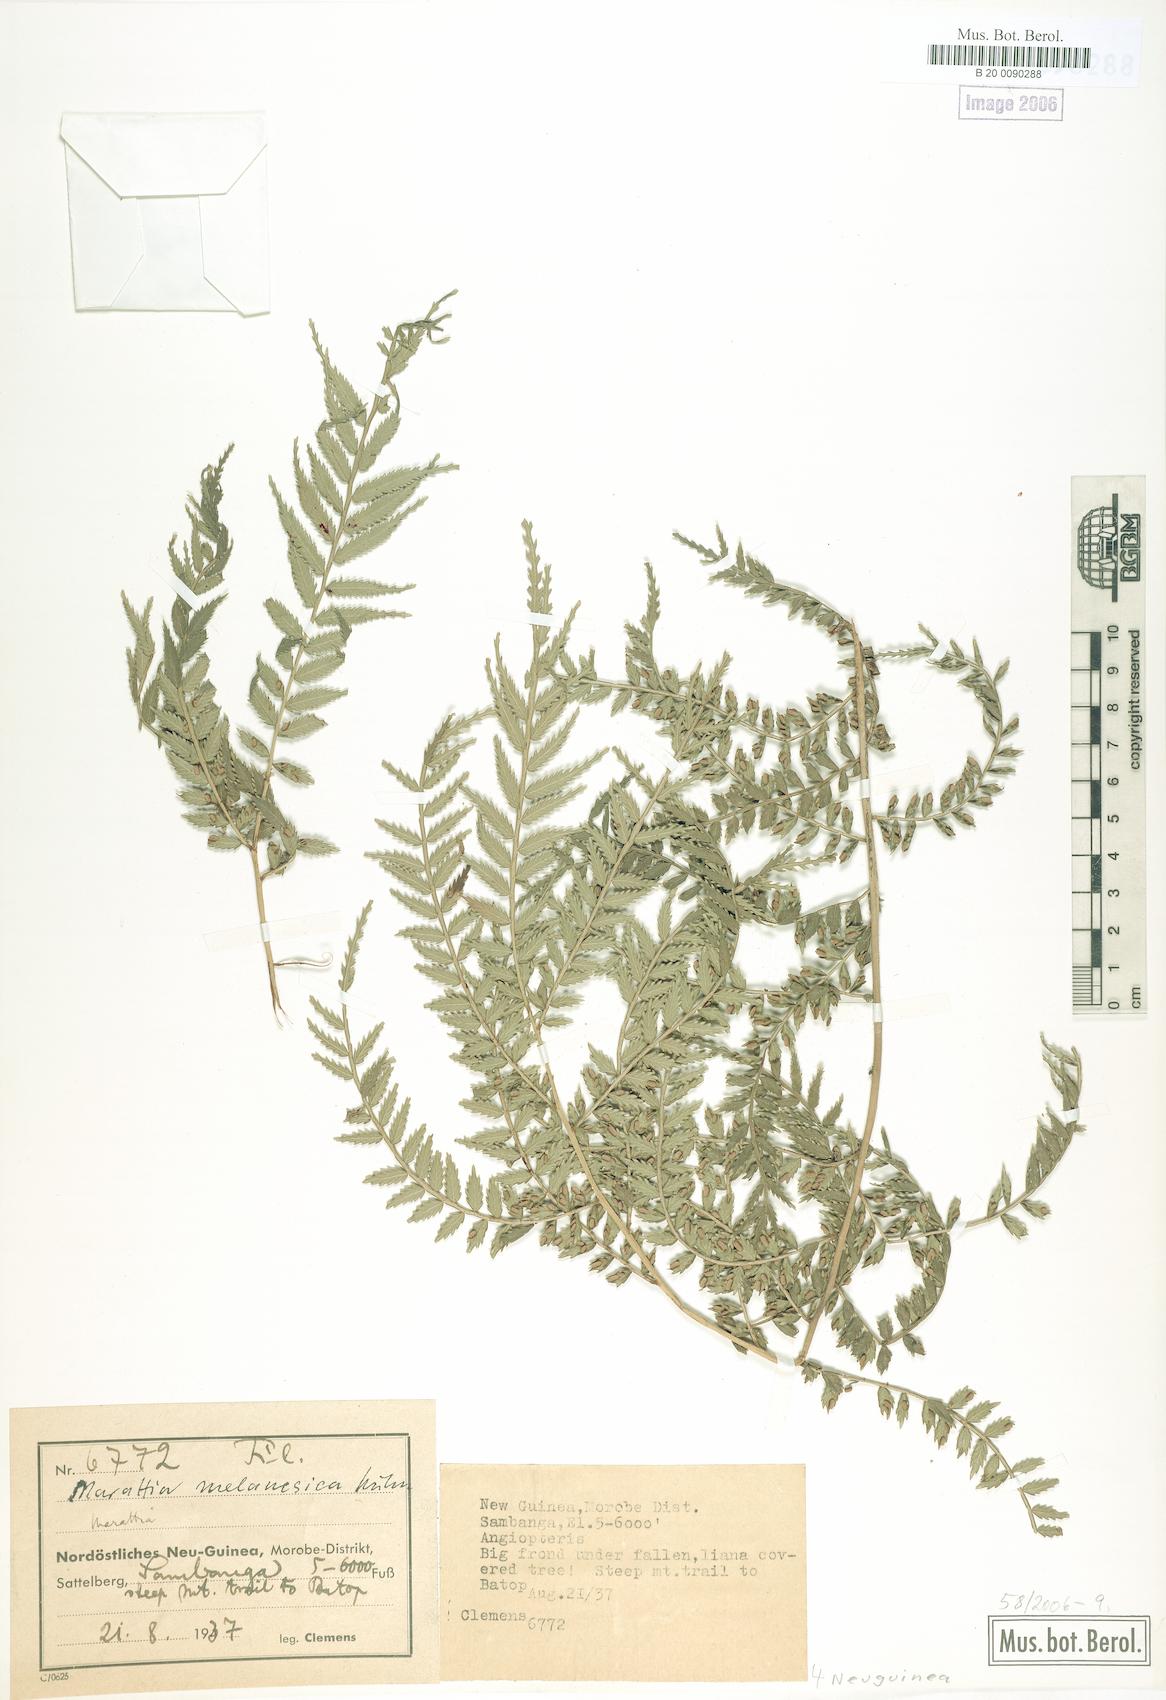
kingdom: Plantae
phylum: Tracheophyta
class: Polypodiopsida
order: Marattiales
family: Marattiaceae
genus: Ptisana
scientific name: Ptisana melanesica
